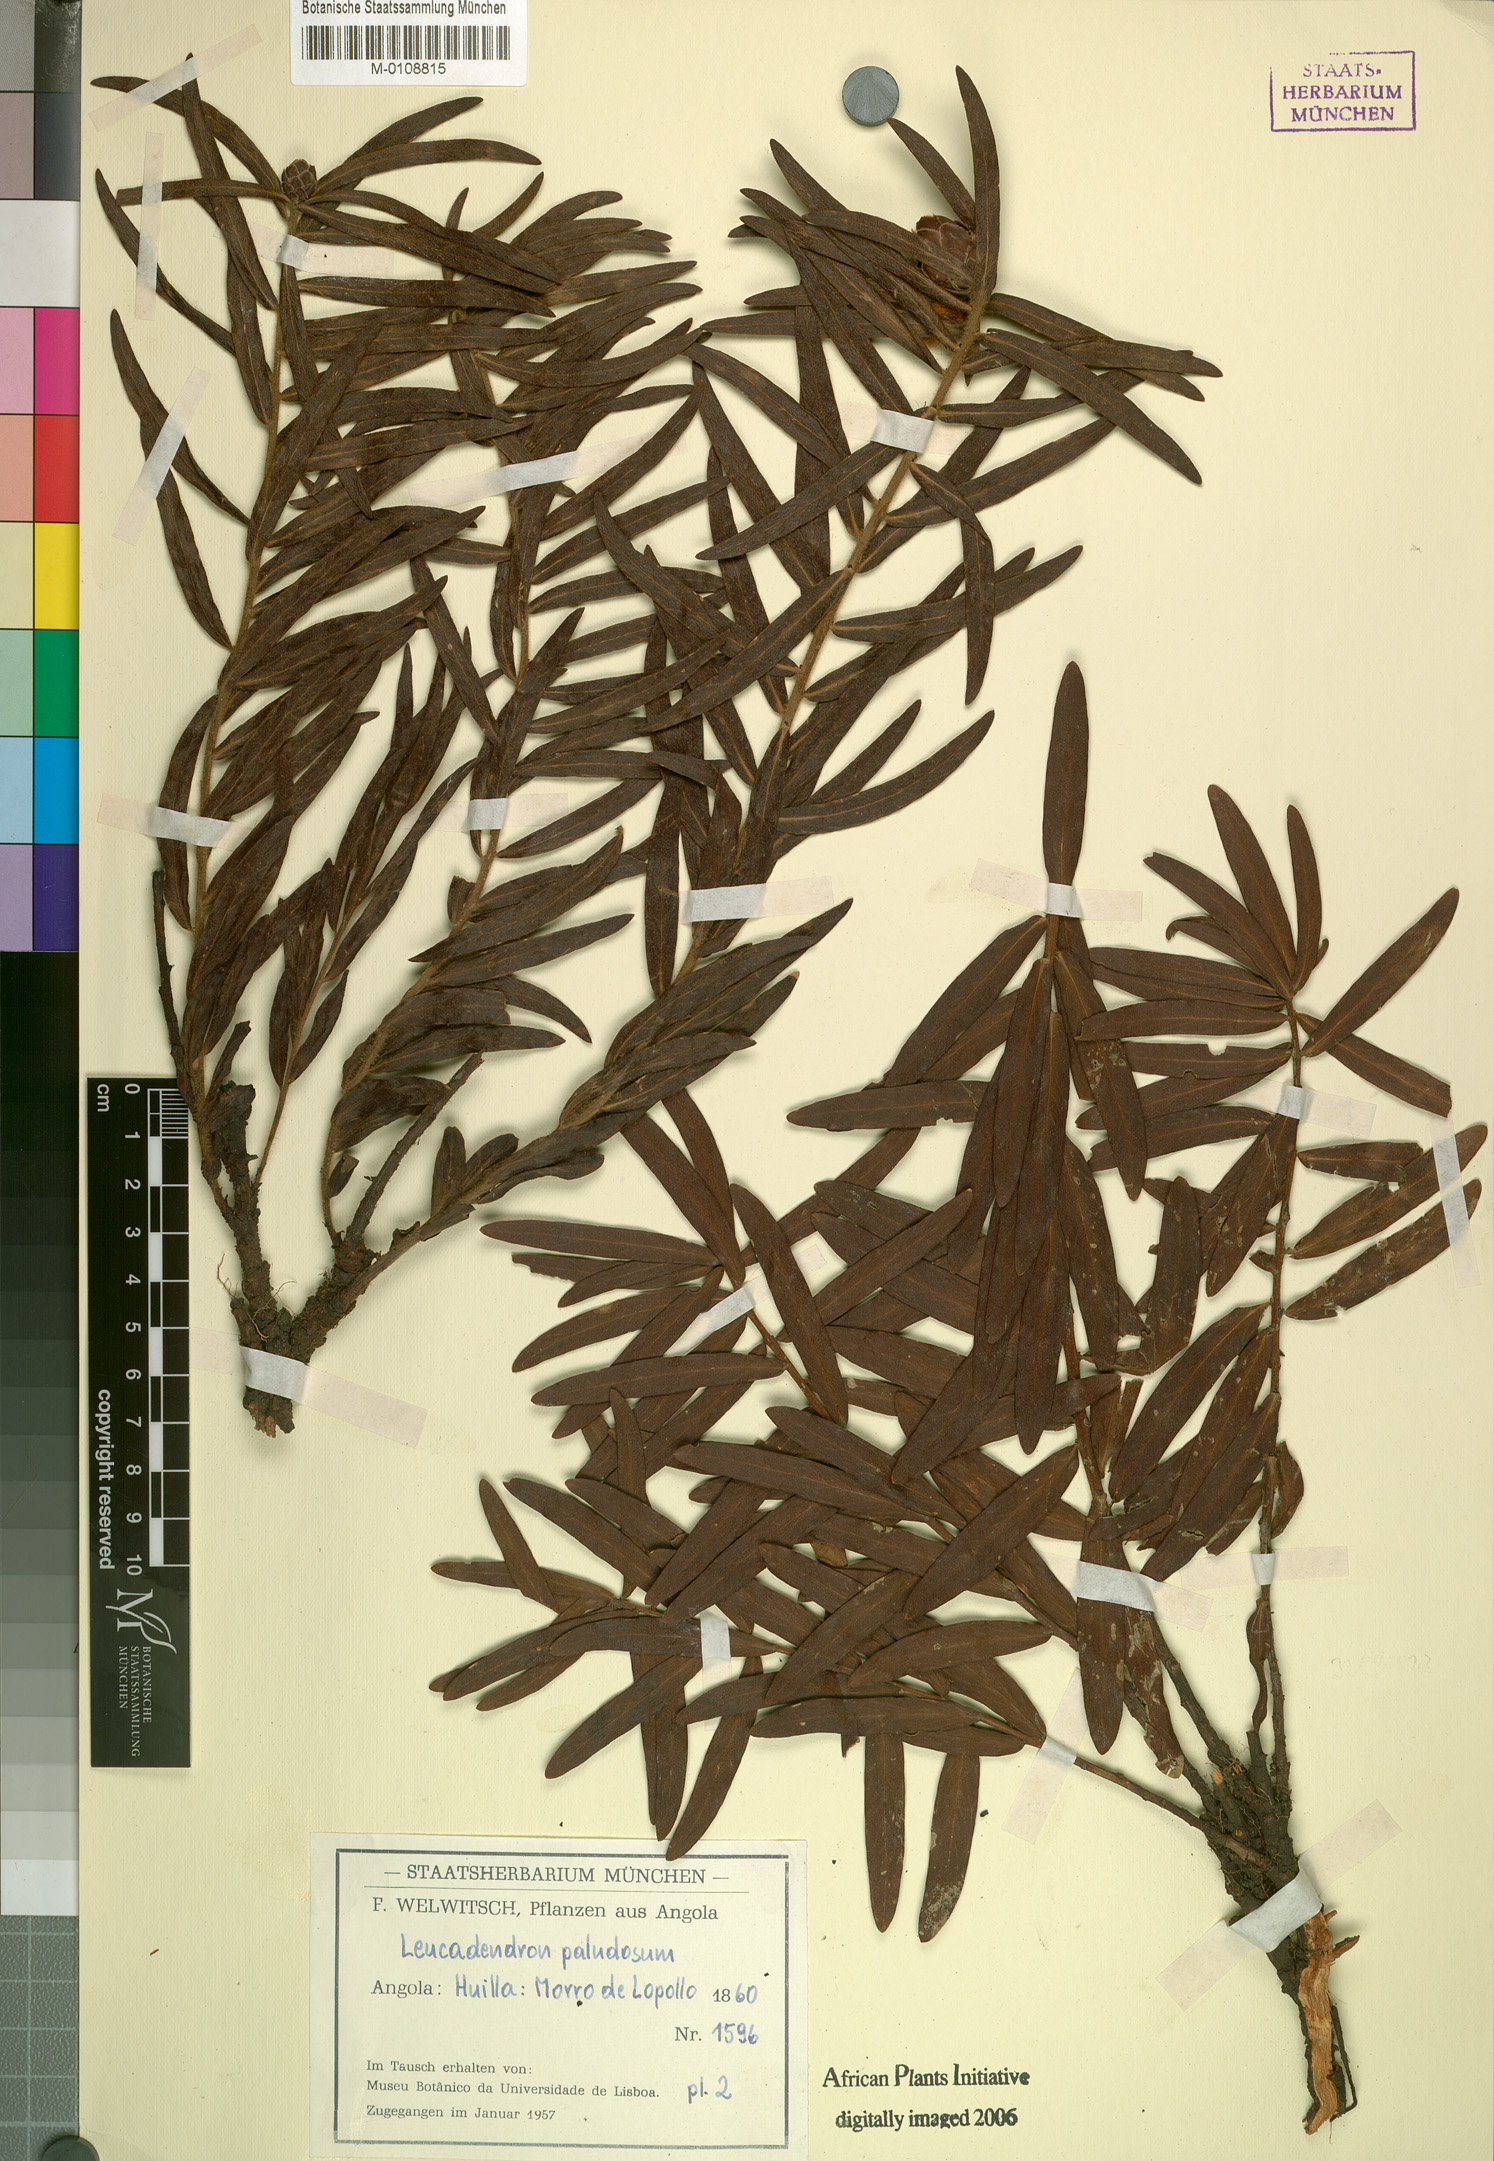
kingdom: Plantae
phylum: Tracheophyta
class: Magnoliopsida
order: Proteales
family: Proteaceae
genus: Protea
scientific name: Protea paludosa
